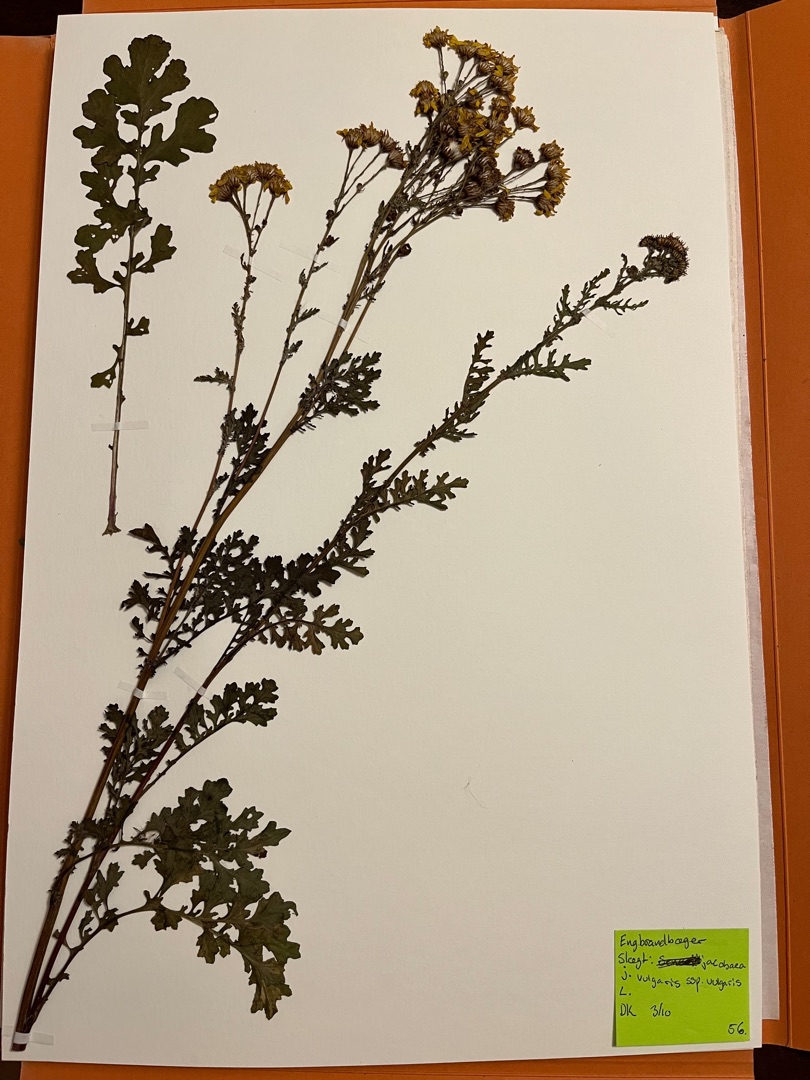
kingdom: Plantae
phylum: Tracheophyta
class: Magnoliopsida
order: Asterales
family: Asteraceae
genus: Jacobaea
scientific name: Jacobaea vulgaris
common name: Eng-brandbæger
